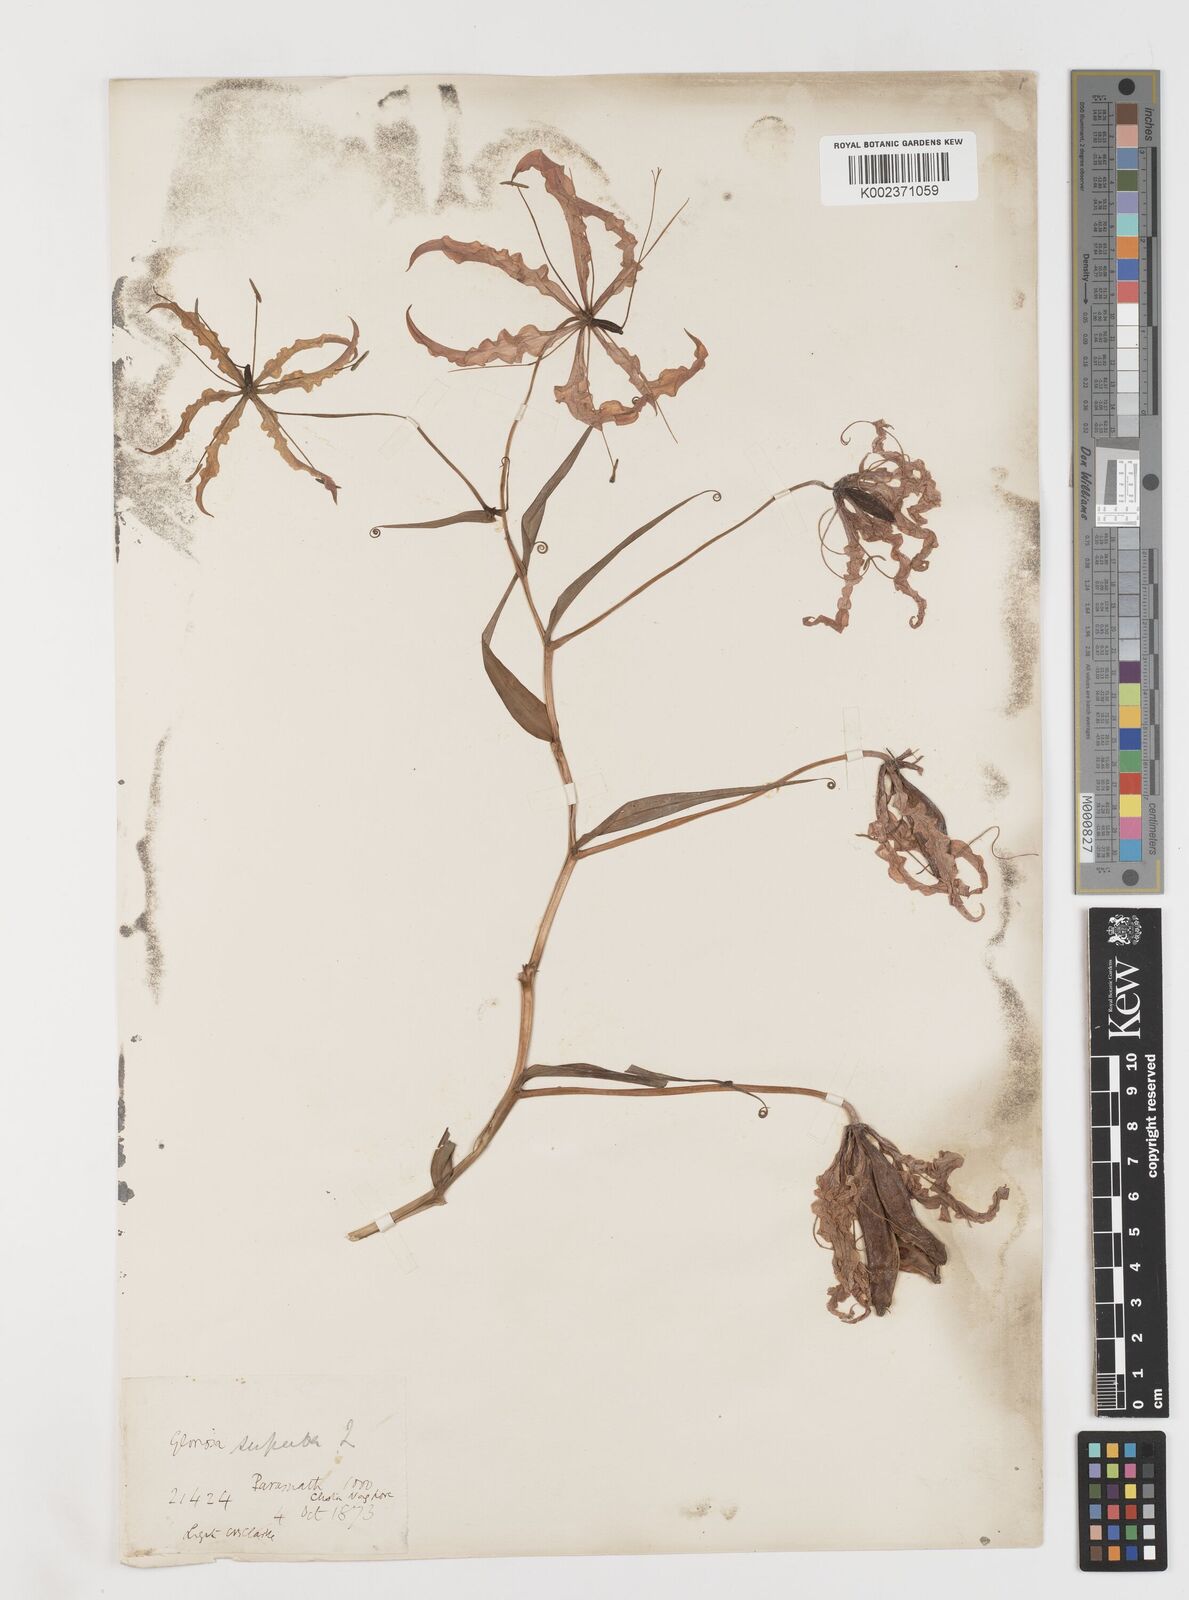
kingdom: Plantae
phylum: Tracheophyta
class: Liliopsida
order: Liliales
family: Colchicaceae
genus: Gloriosa
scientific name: Gloriosa superba
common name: Flame lily
